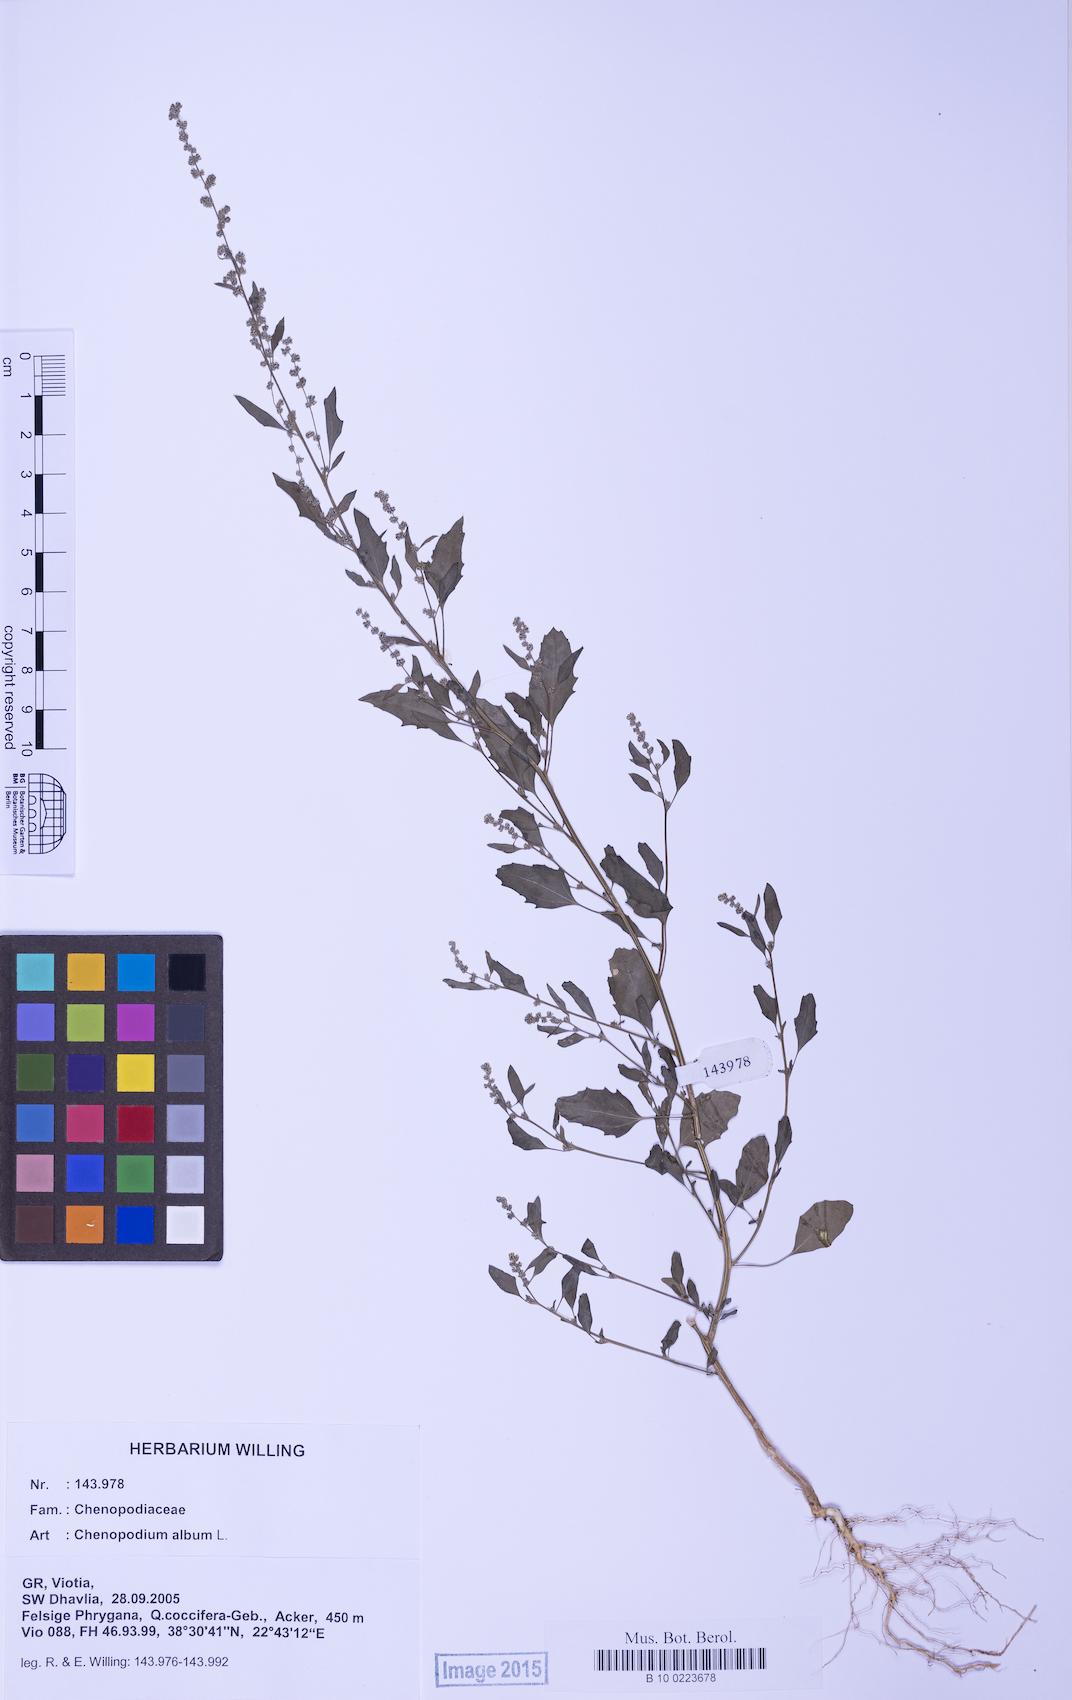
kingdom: Plantae
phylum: Tracheophyta
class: Magnoliopsida
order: Caryophyllales
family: Amaranthaceae
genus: Chenopodium
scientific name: Chenopodium album
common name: Fat-hen
